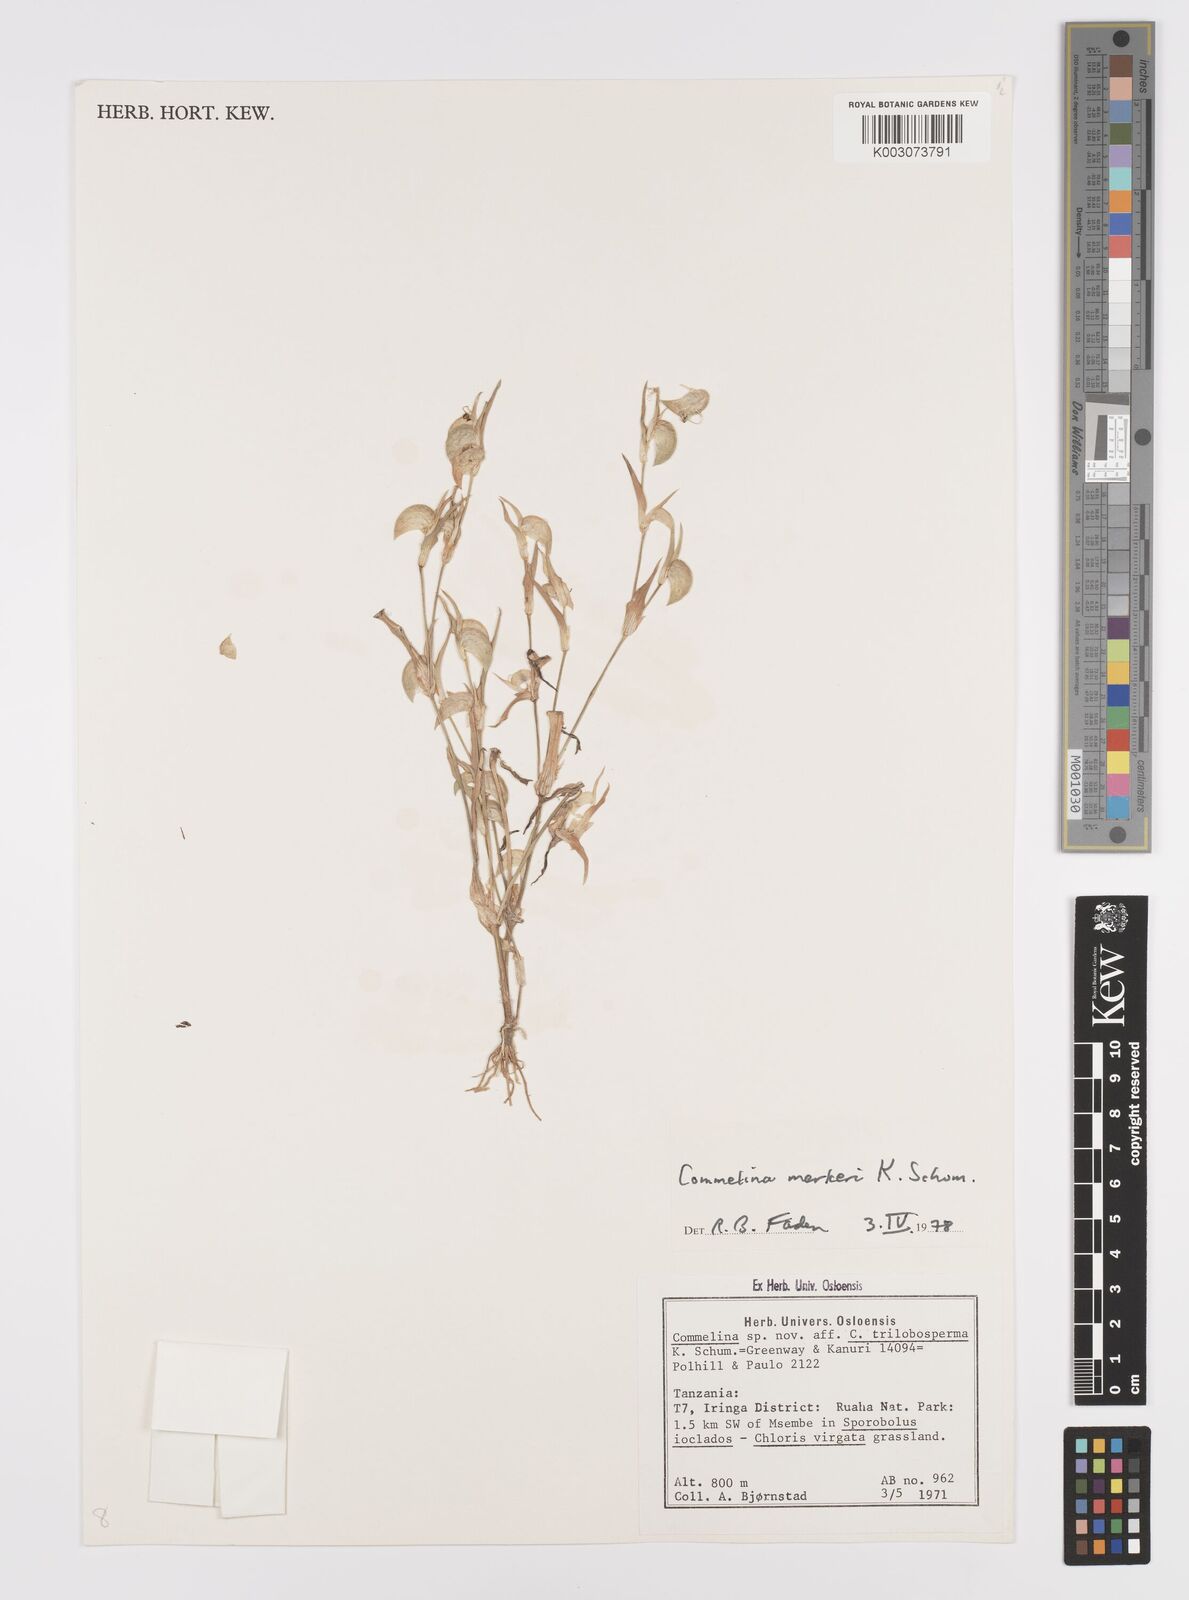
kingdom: Plantae
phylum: Tracheophyta
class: Liliopsida
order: Commelinales
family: Commelinaceae
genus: Commelina
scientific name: Commelina merkeri
